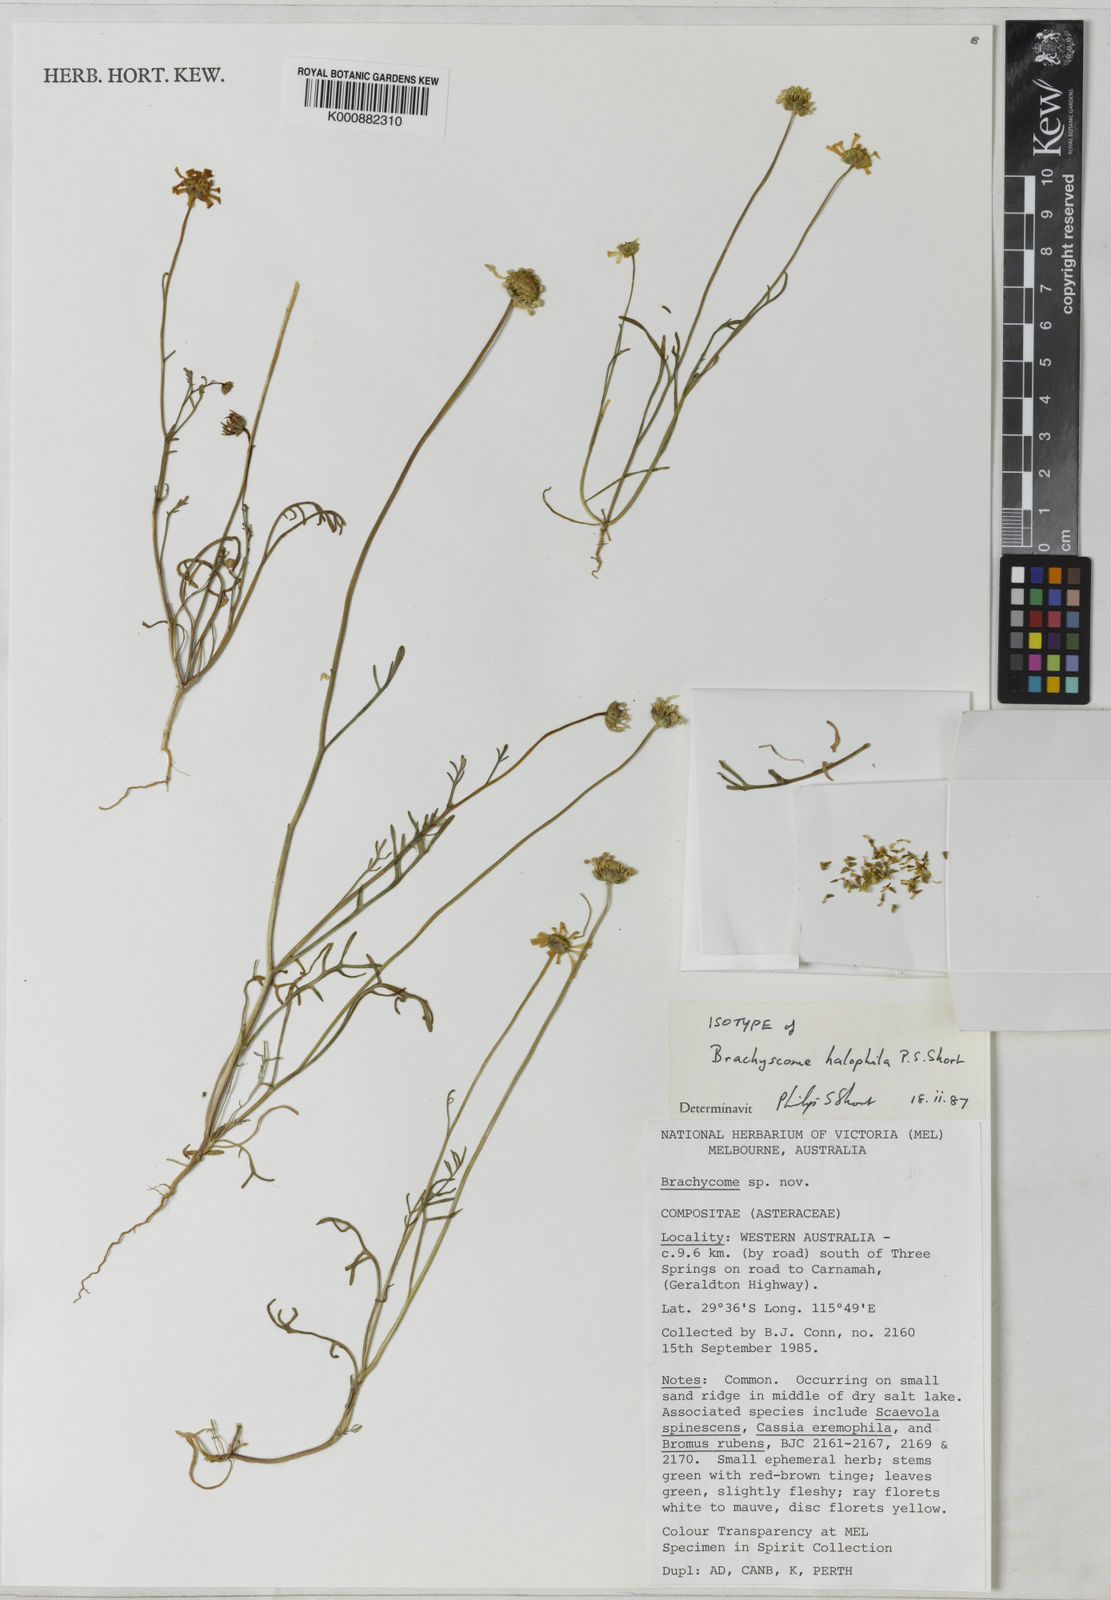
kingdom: Plantae
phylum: Tracheophyta
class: Magnoliopsida
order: Asterales
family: Asteraceae
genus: Roebuckiella
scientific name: Roebuckiella halophila
